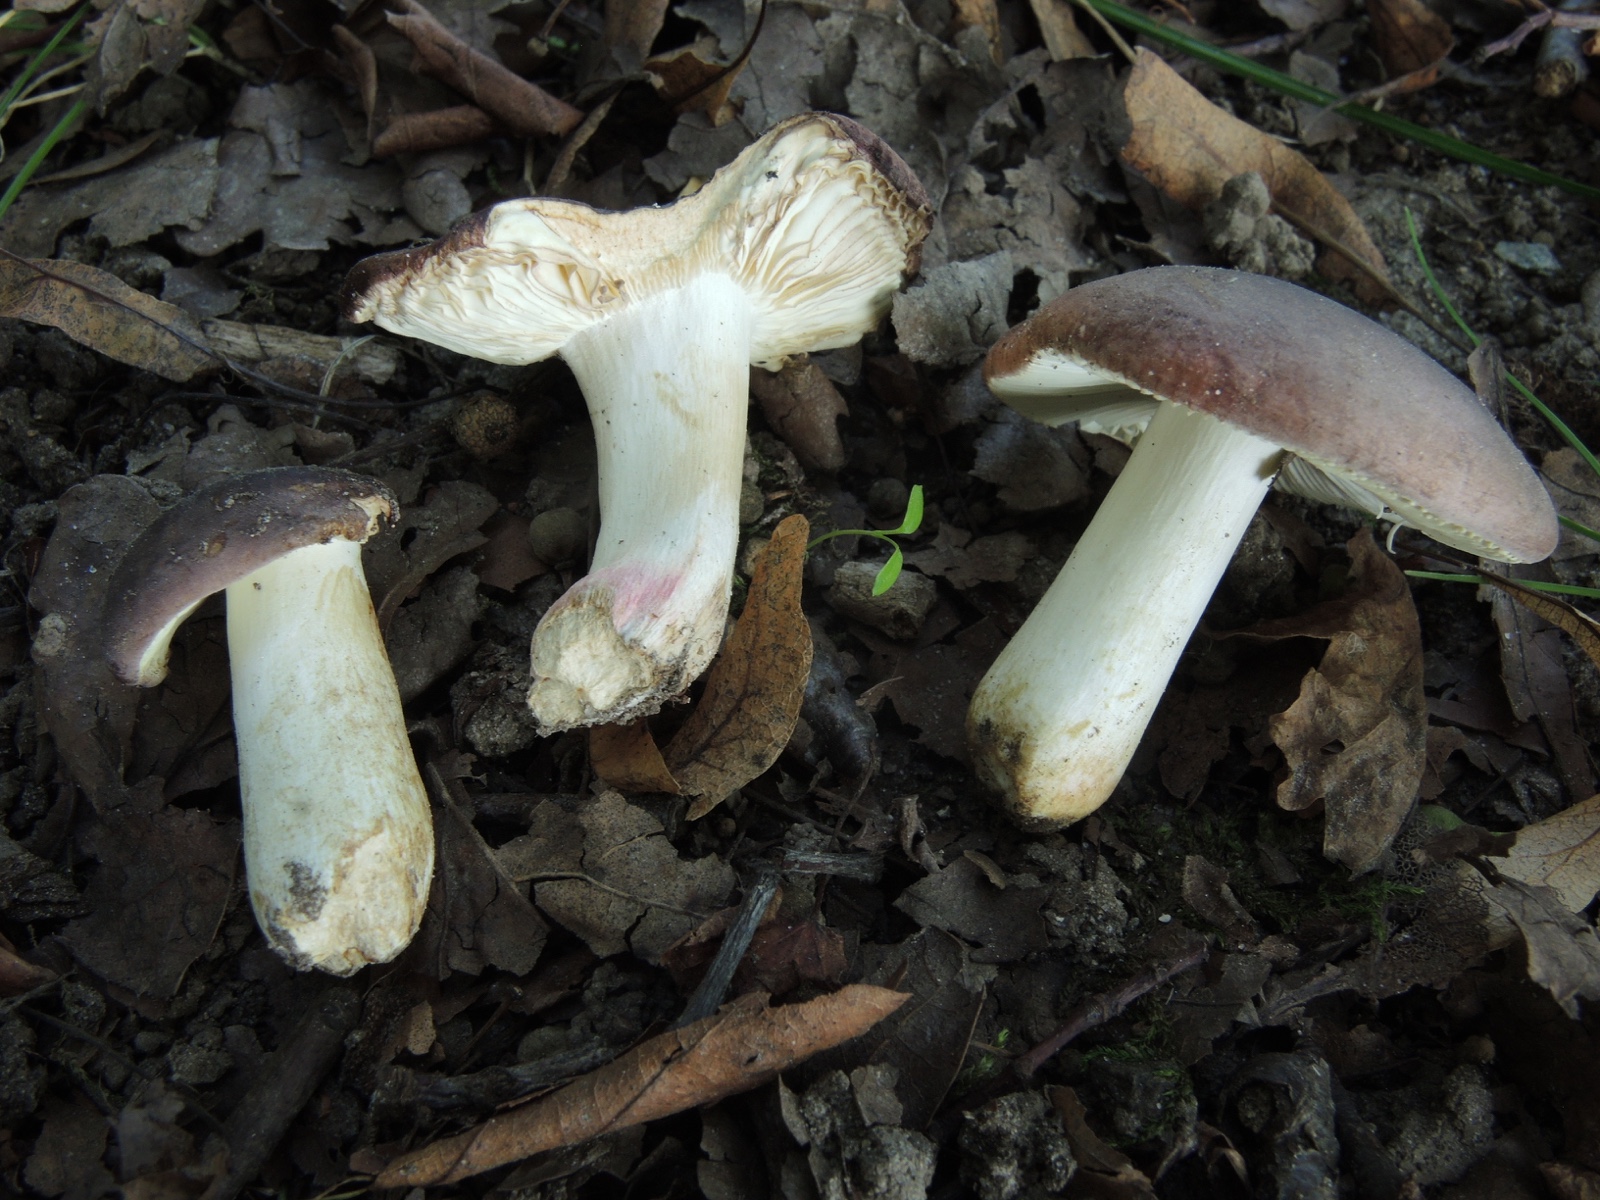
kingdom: Fungi
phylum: Basidiomycota
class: Agaricomycetes
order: Russulales
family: Russulaceae
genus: Russula
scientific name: Russula graveolens
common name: bugtet skørhat
